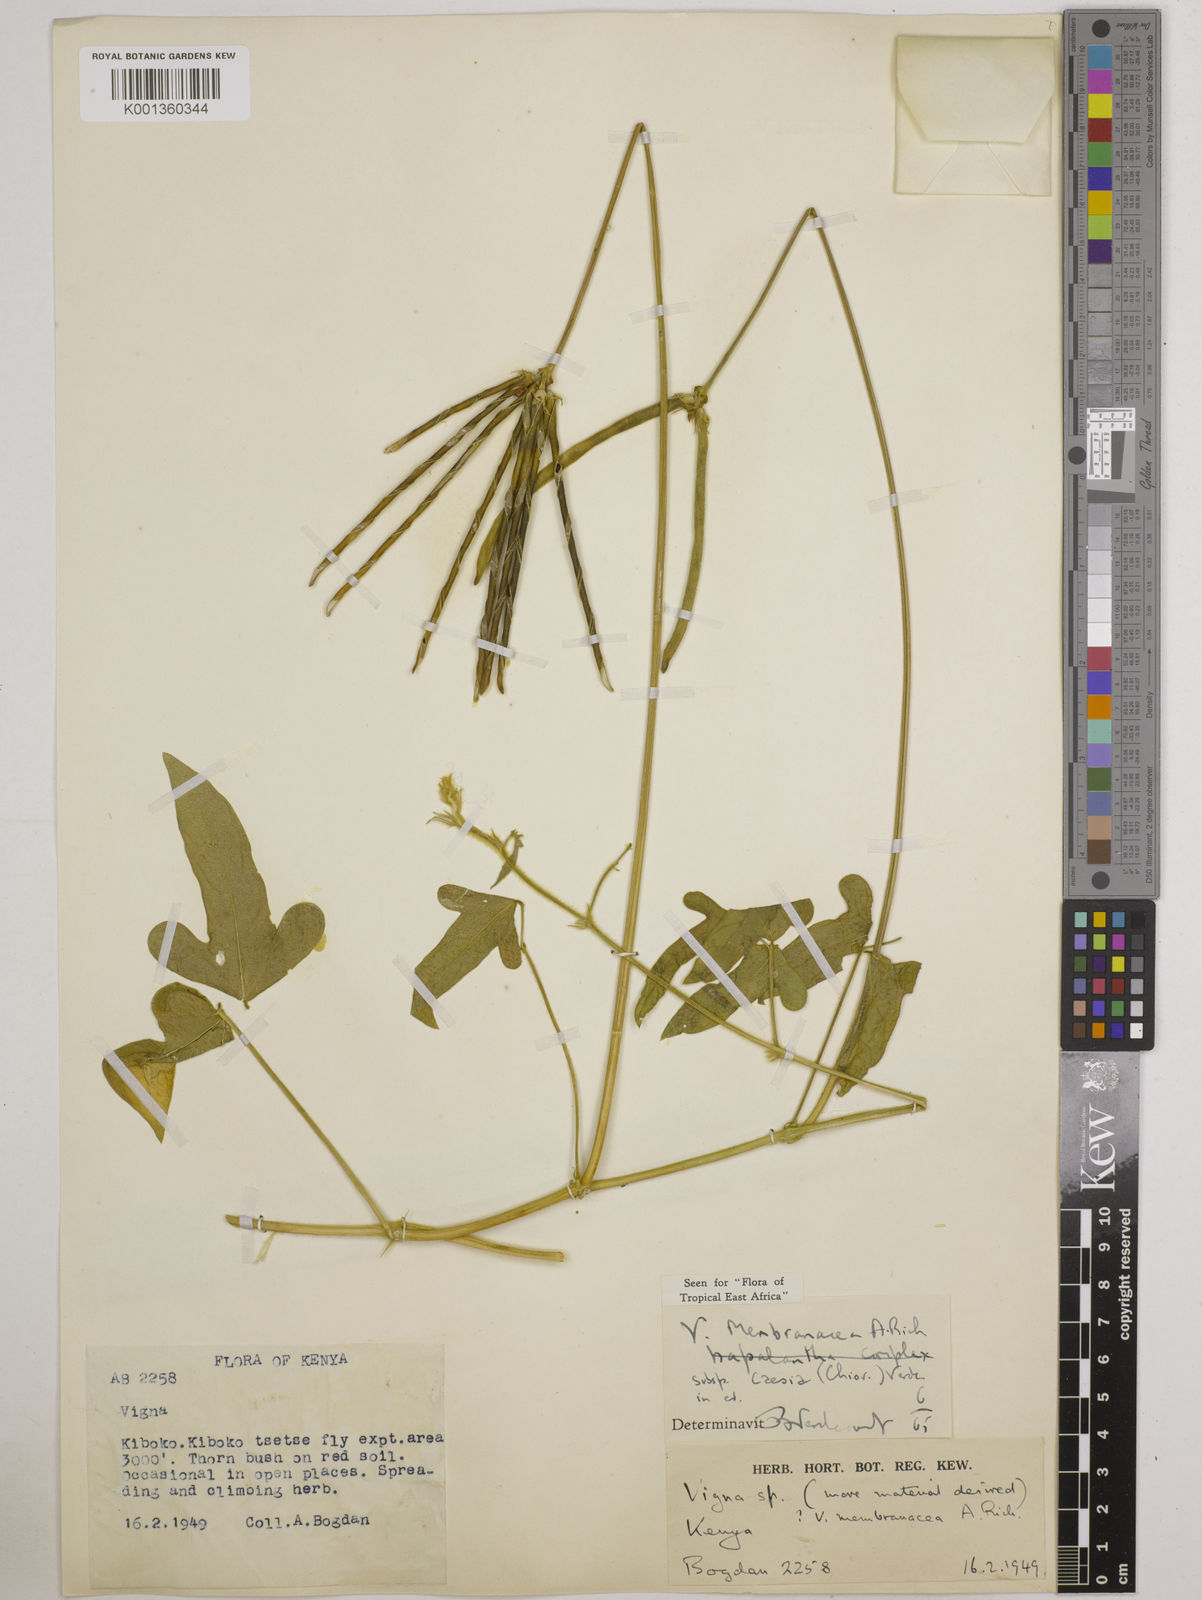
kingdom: Plantae
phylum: Tracheophyta
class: Magnoliopsida
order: Fabales
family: Fabaceae
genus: Vigna
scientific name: Vigna
